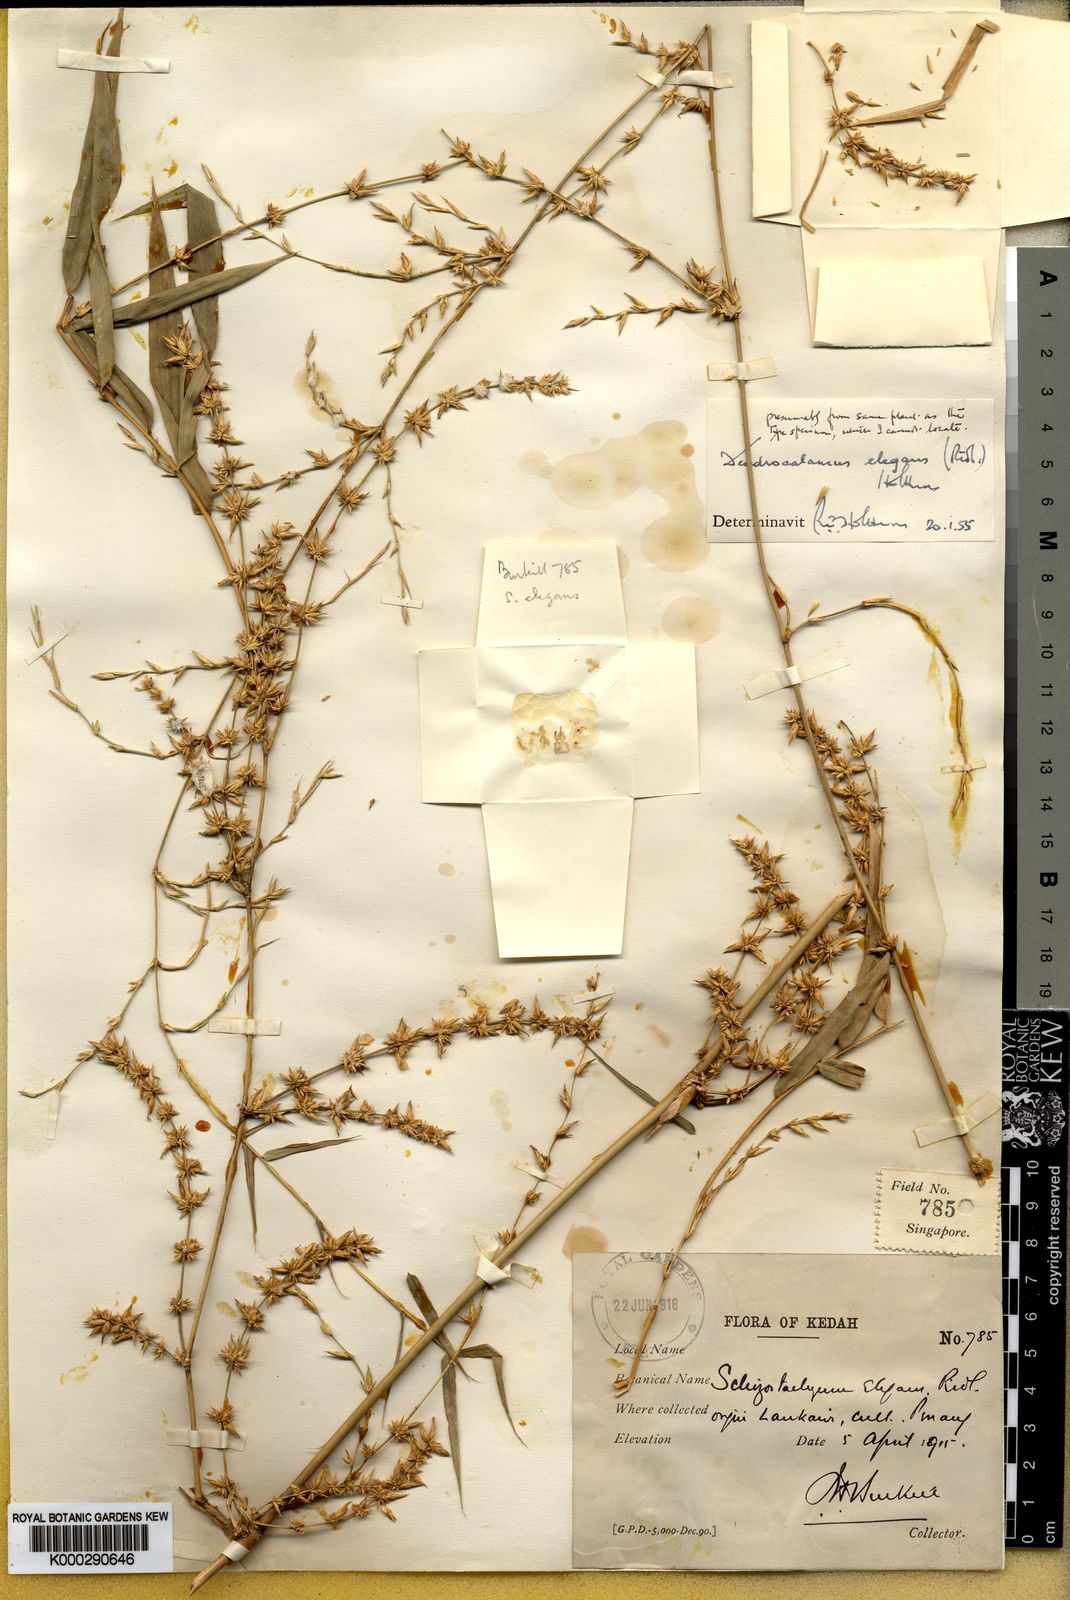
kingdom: Plantae
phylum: Tracheophyta
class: Liliopsida
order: Poales
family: Poaceae
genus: Dendrocalamus
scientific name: Dendrocalamus elegans
